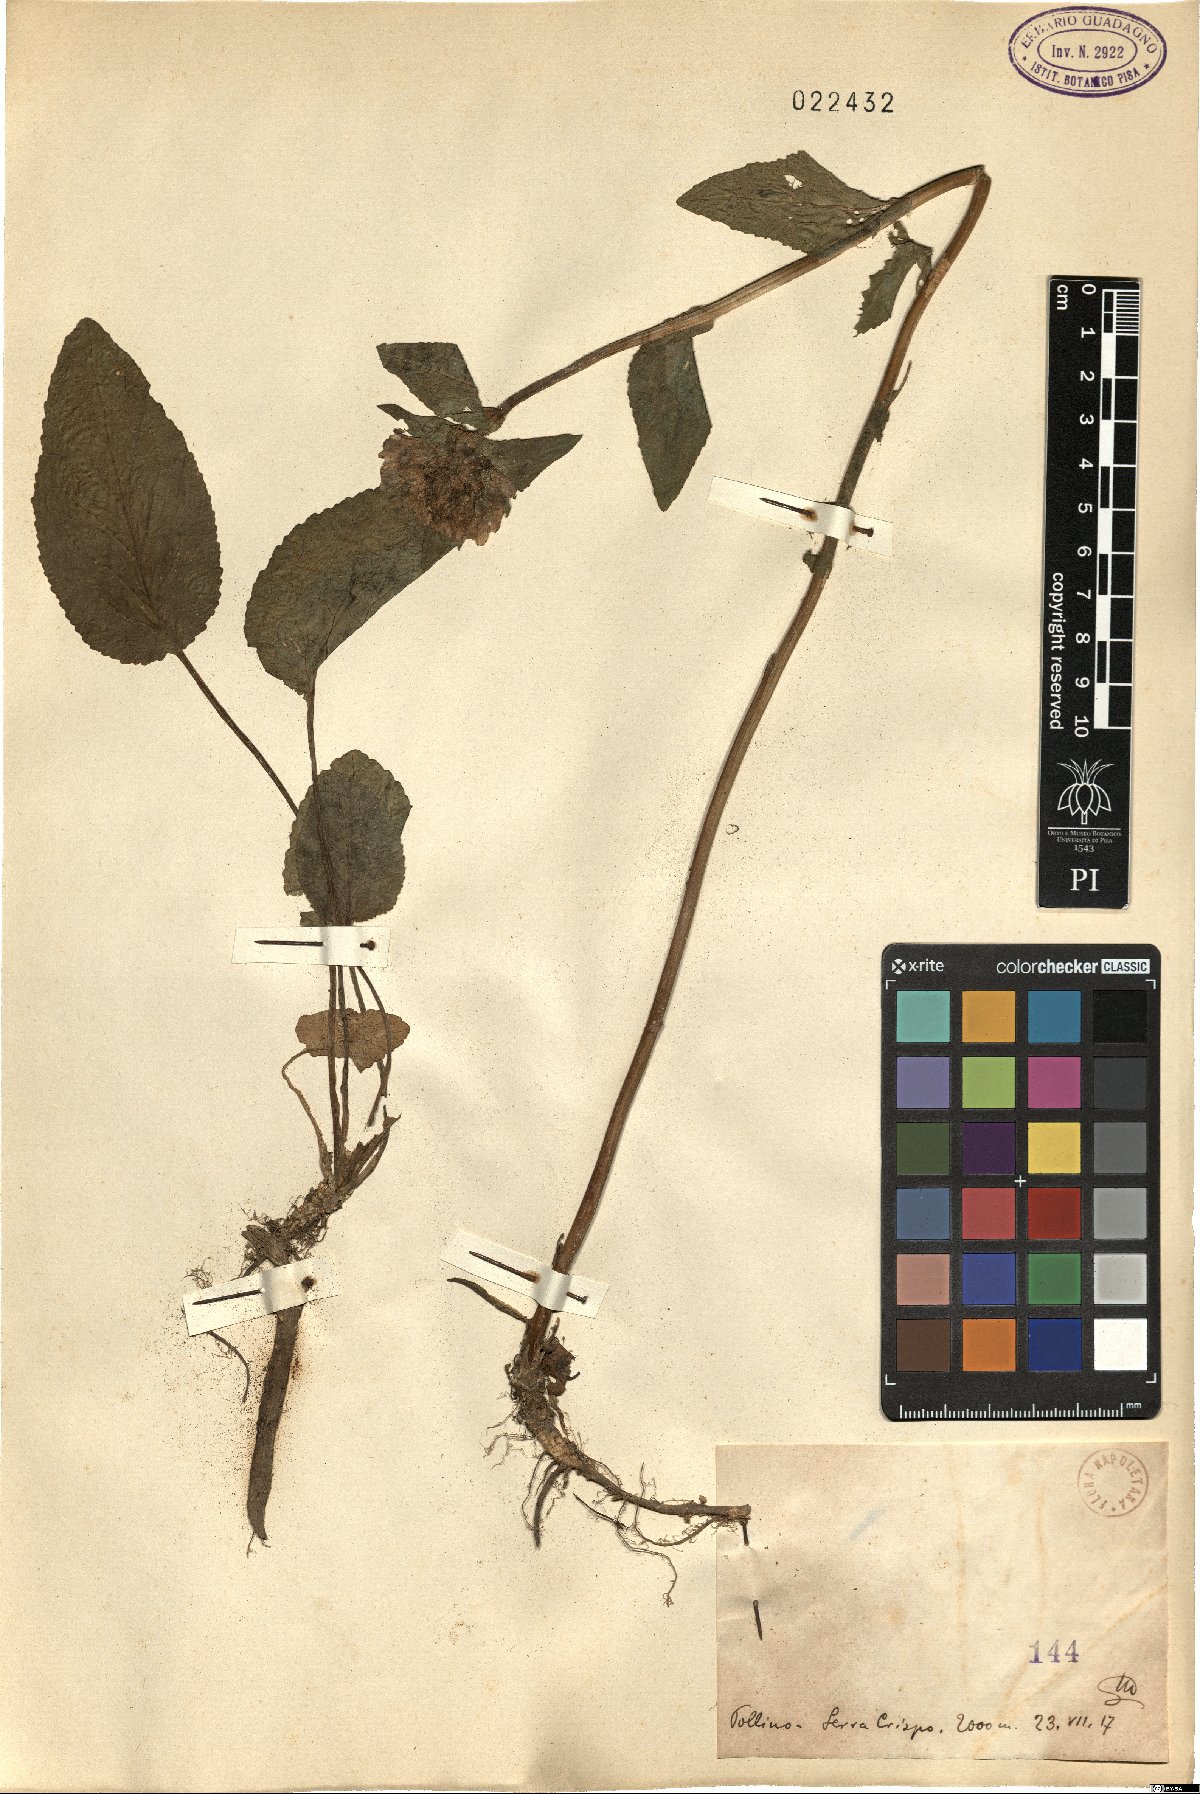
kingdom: Plantae
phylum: Tracheophyta
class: Magnoliopsida
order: Asterales
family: Campanulaceae
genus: Campanula
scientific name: Campanula
